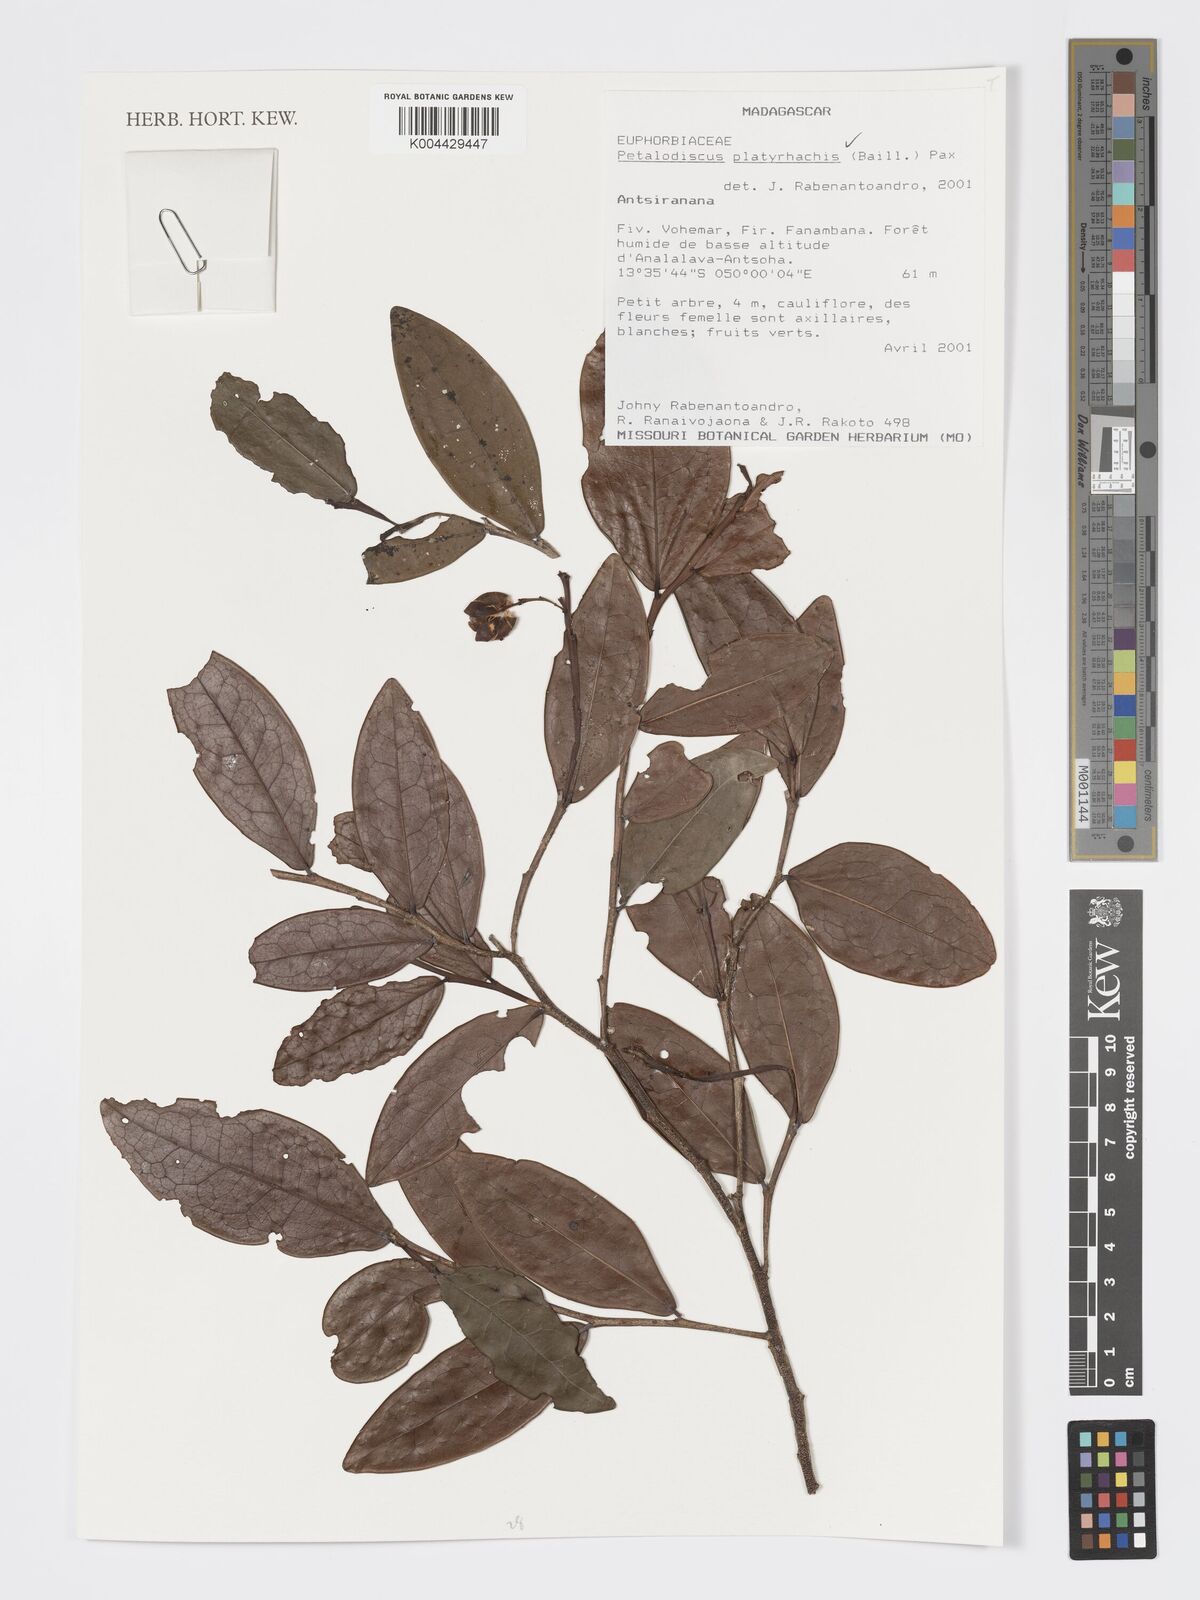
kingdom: Plantae
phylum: Tracheophyta
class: Magnoliopsida
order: Malpighiales
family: Phyllanthaceae
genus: Wielandia
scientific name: Wielandia platyrachis
